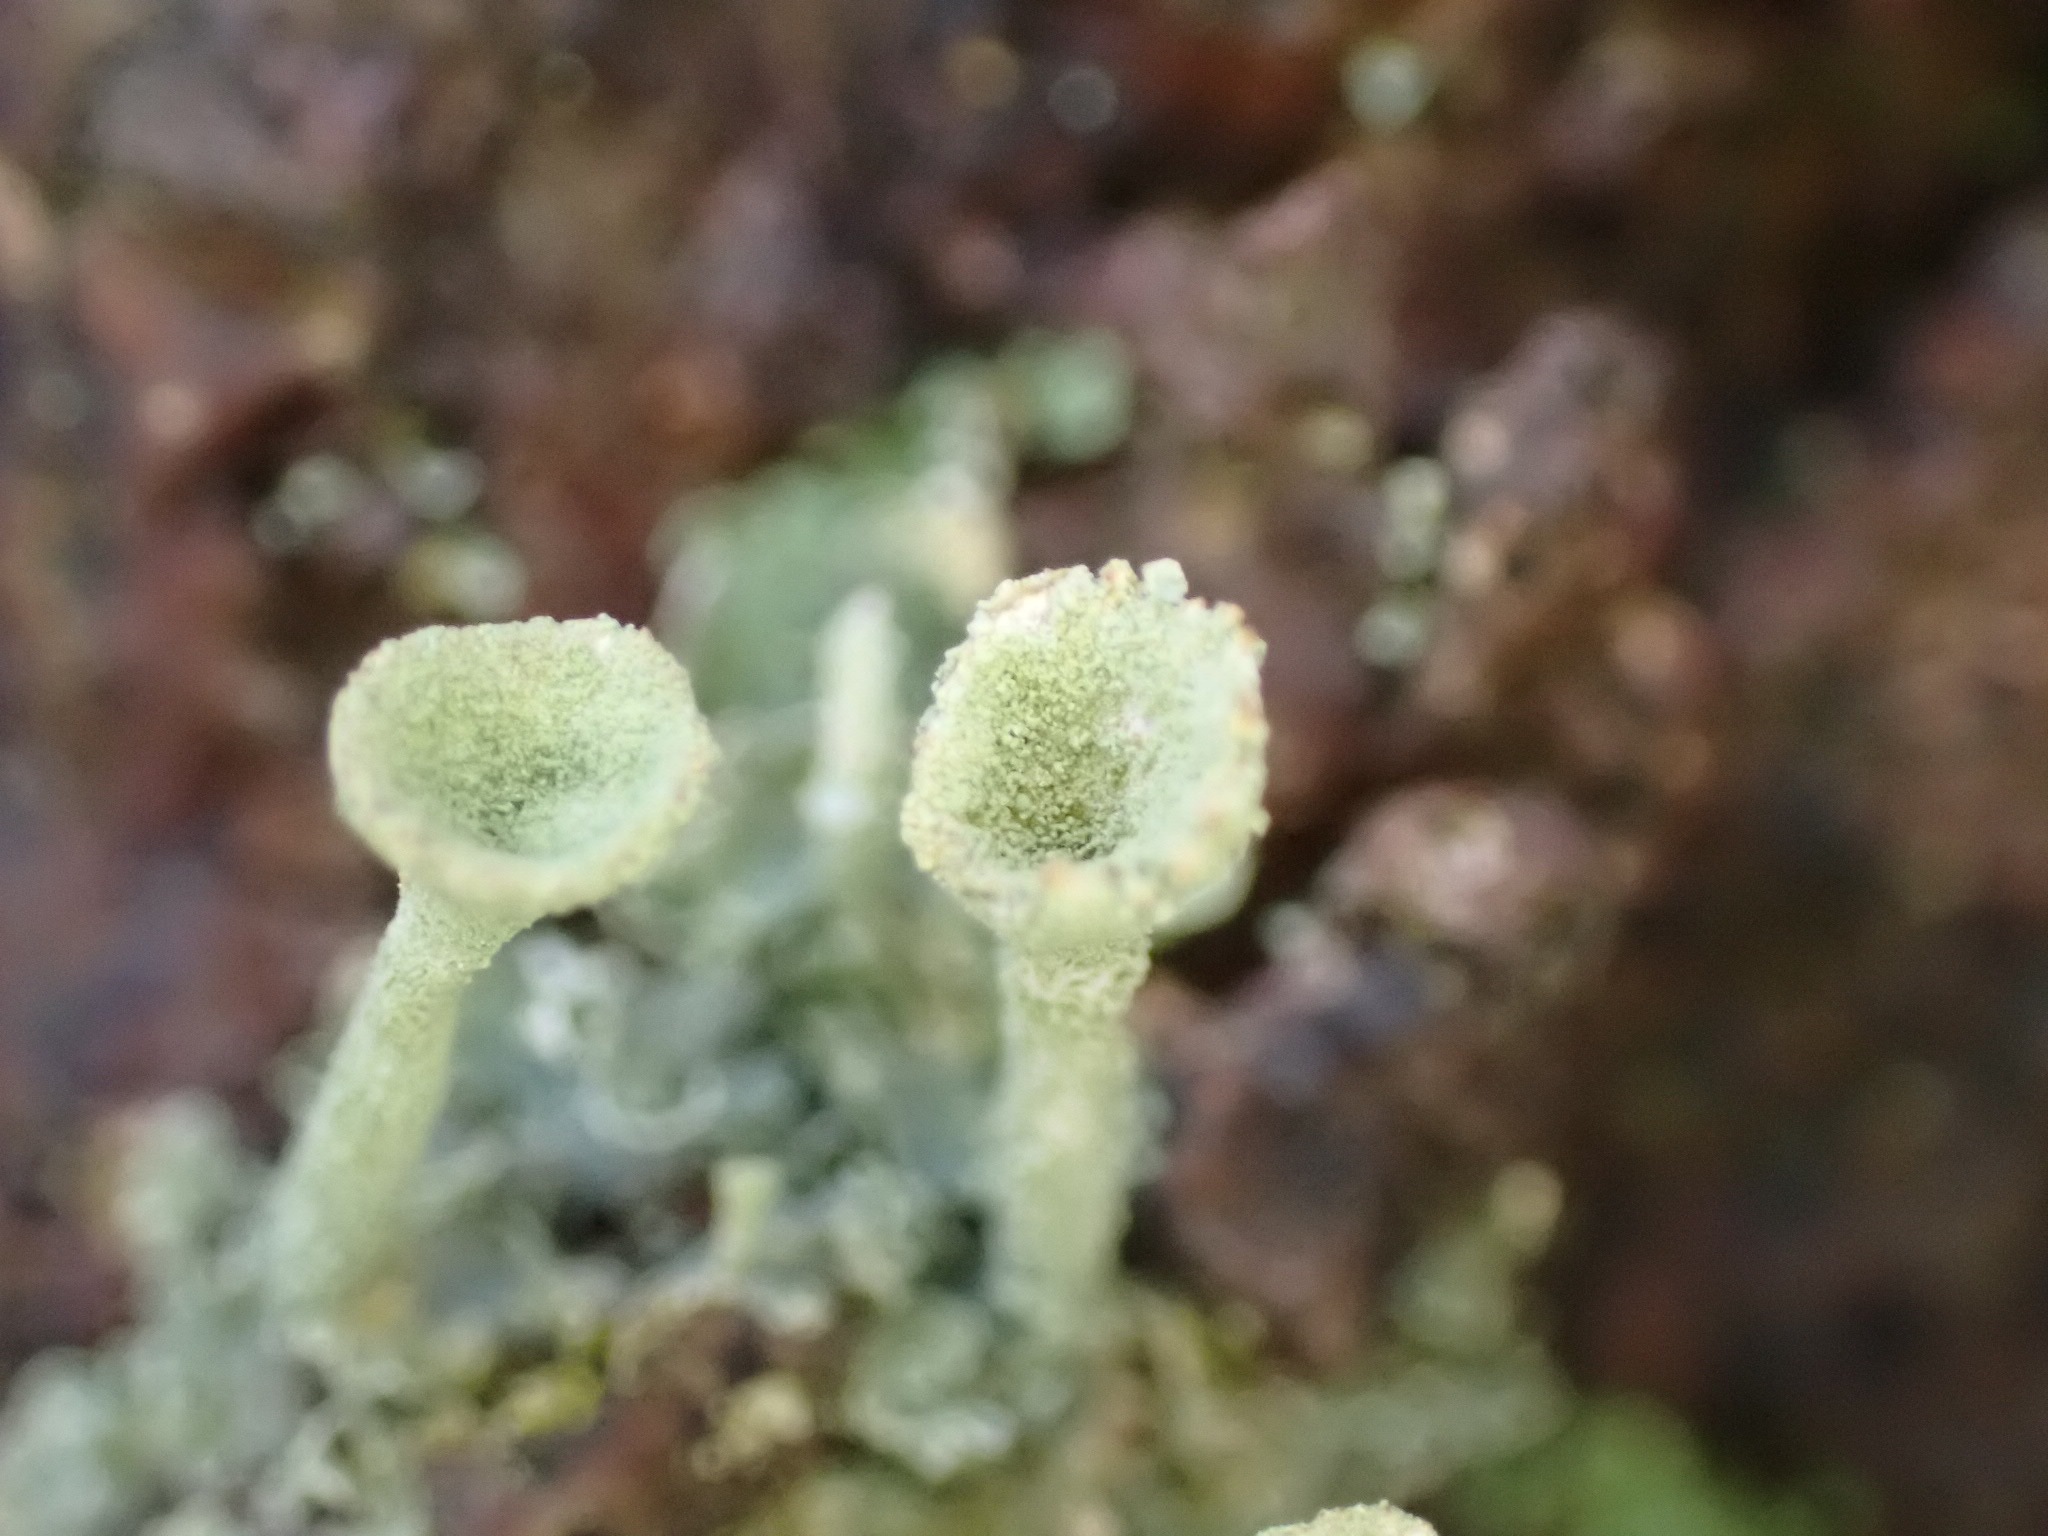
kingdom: Fungi
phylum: Ascomycota
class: Lecanoromycetes
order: Lecanorales
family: Cladoniaceae
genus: Cladonia
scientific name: Cladonia fimbriata
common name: bleggrøn bægerlav
